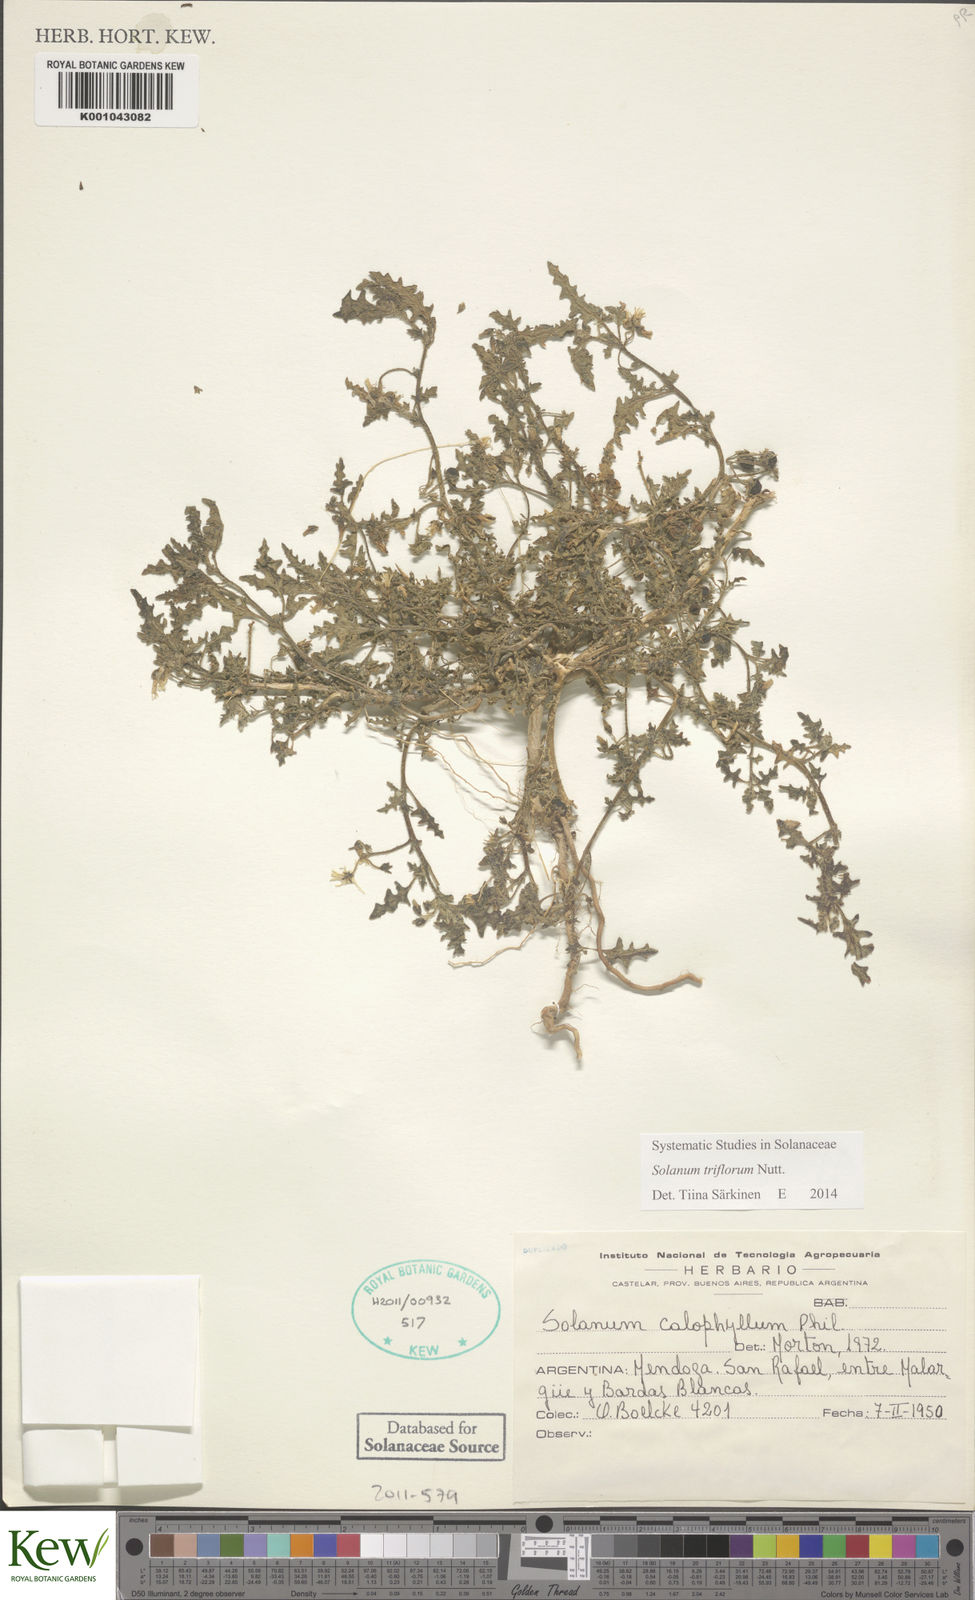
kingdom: Plantae
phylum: Tracheophyta
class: Magnoliopsida
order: Solanales
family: Solanaceae
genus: Solanum
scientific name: Solanum triflorum
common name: Small nightshade
